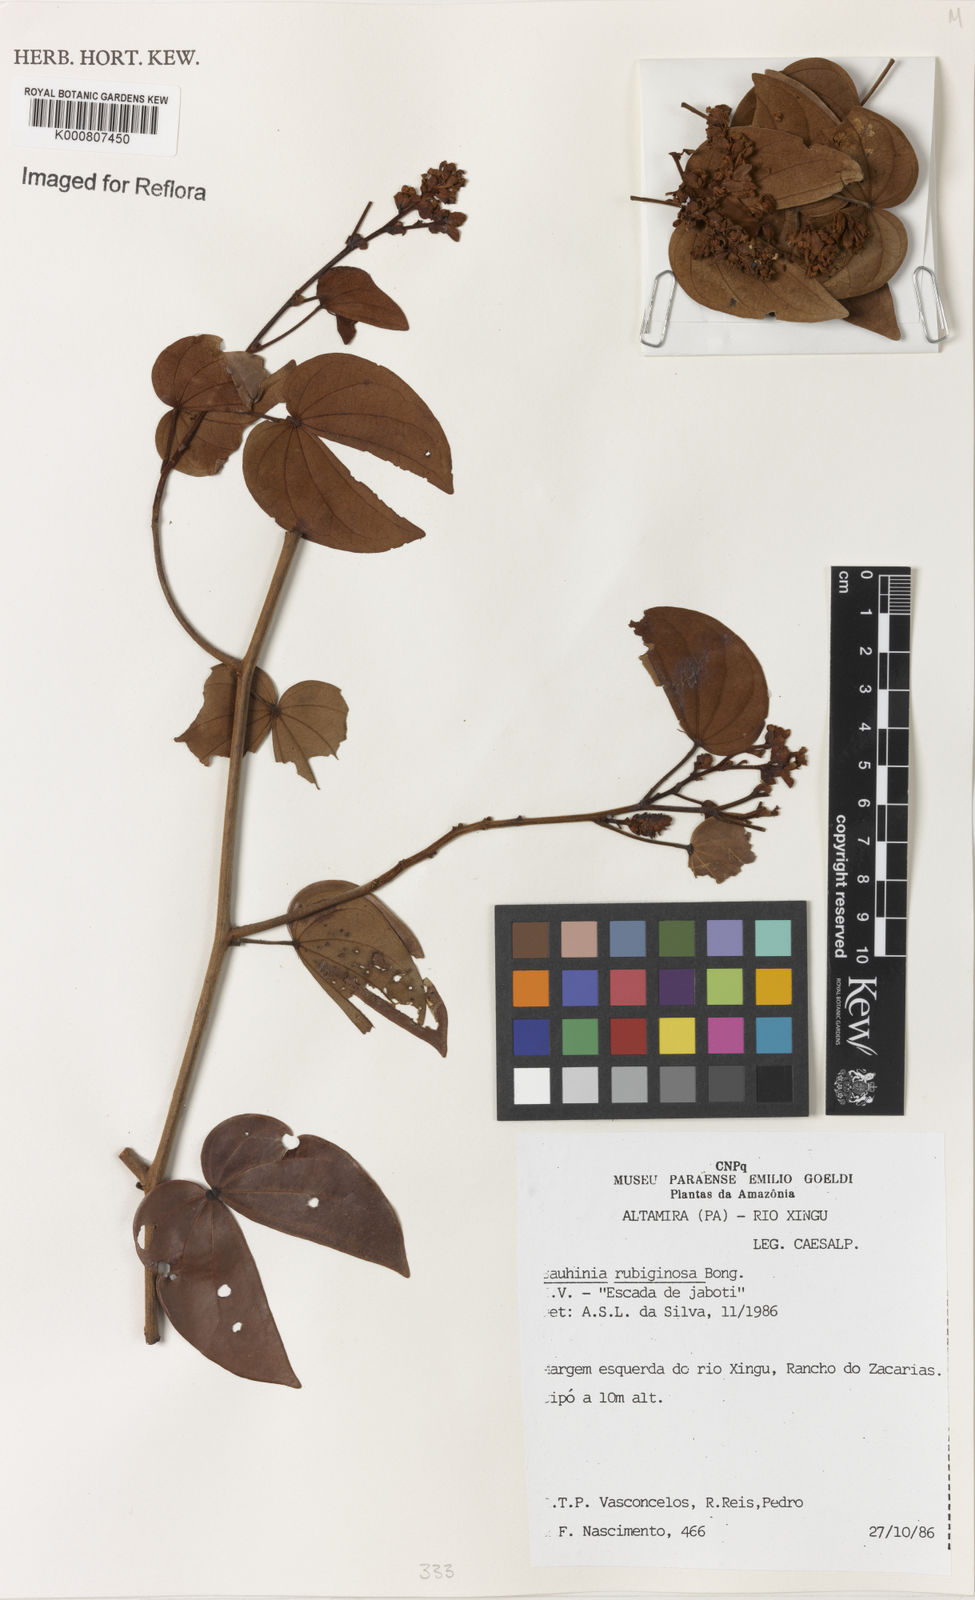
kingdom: Plantae
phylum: Tracheophyta
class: Magnoliopsida
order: Fabales
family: Fabaceae
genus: Schnella
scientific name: Schnella outimouta
